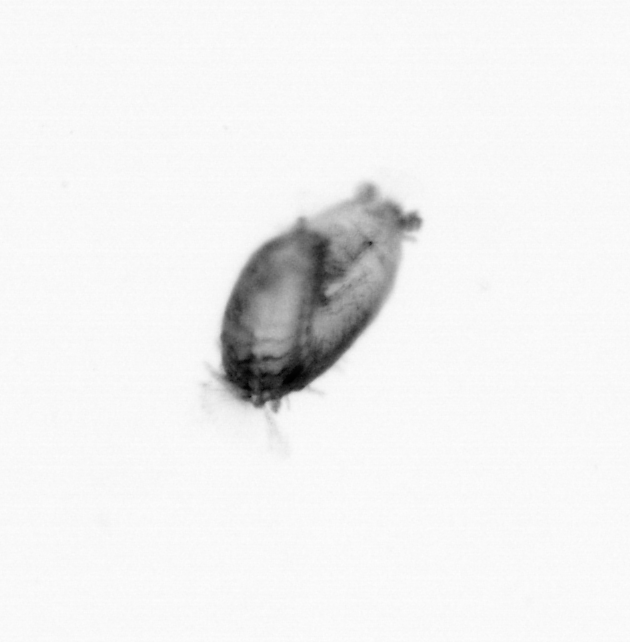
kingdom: Animalia
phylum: Annelida
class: Polychaeta
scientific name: Polychaeta
